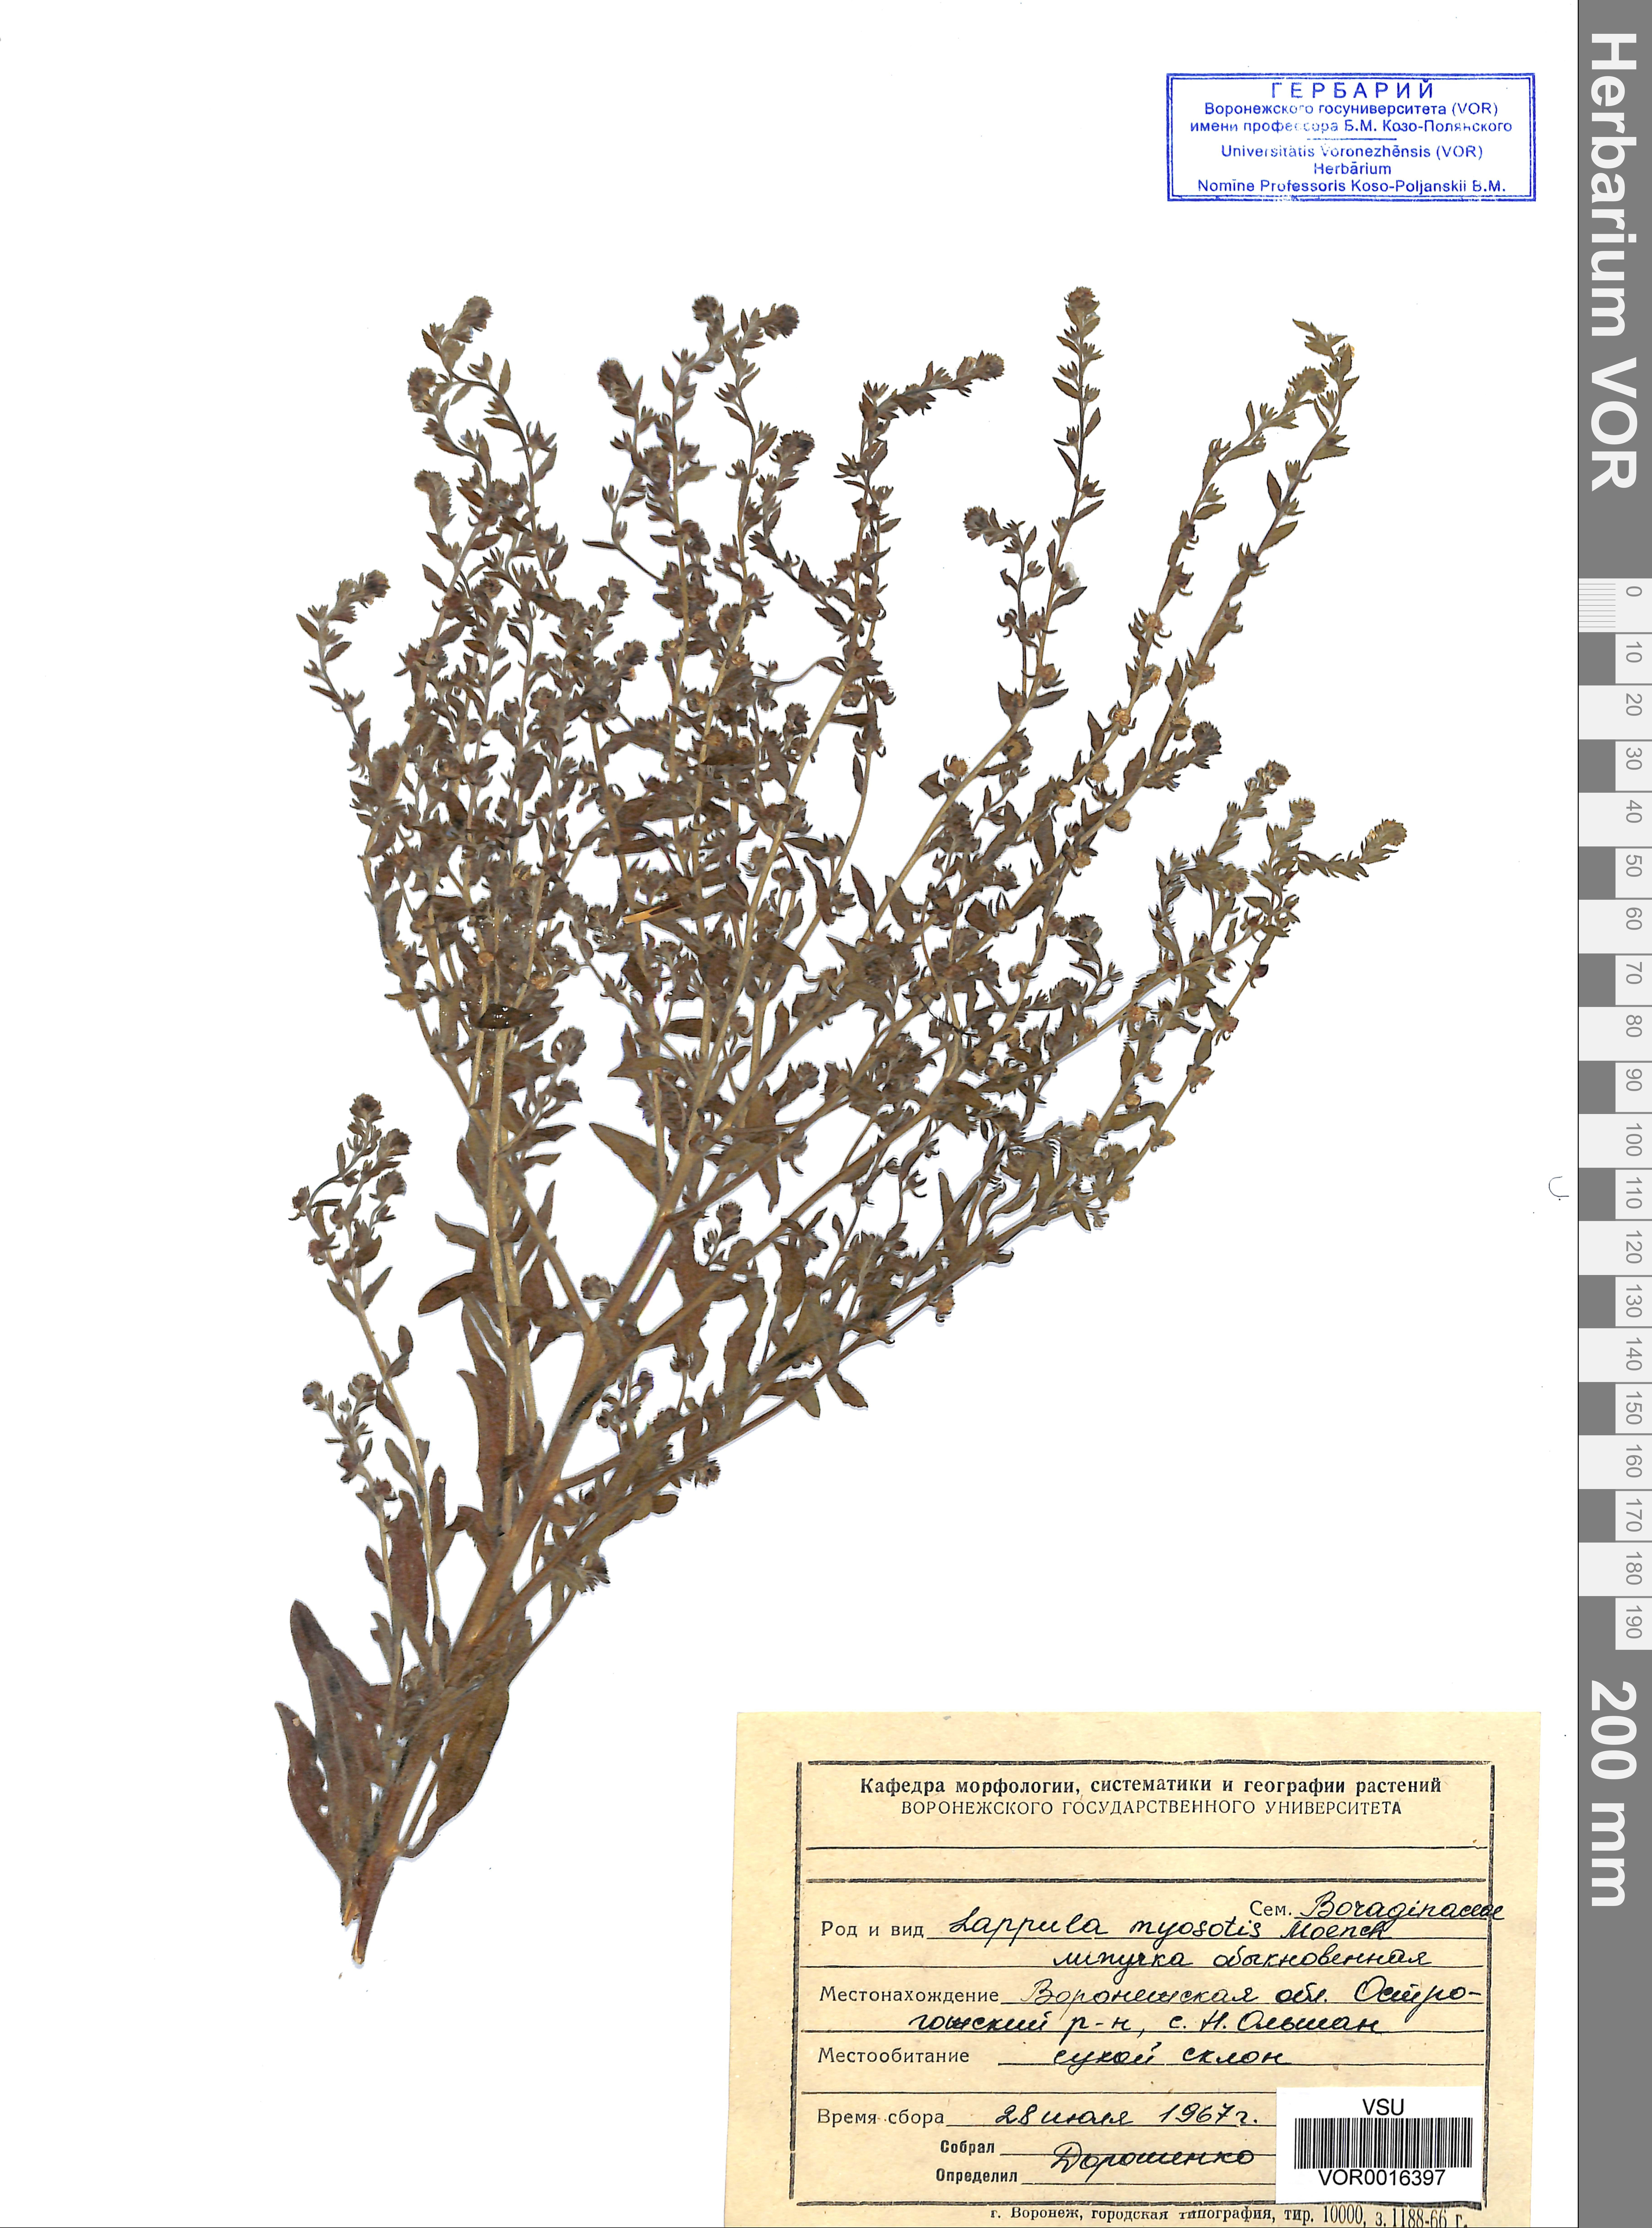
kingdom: Plantae
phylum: Tracheophyta
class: Magnoliopsida
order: Boraginales
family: Boraginaceae
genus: Lappula
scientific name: Lappula squarrosa
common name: European stickseed
